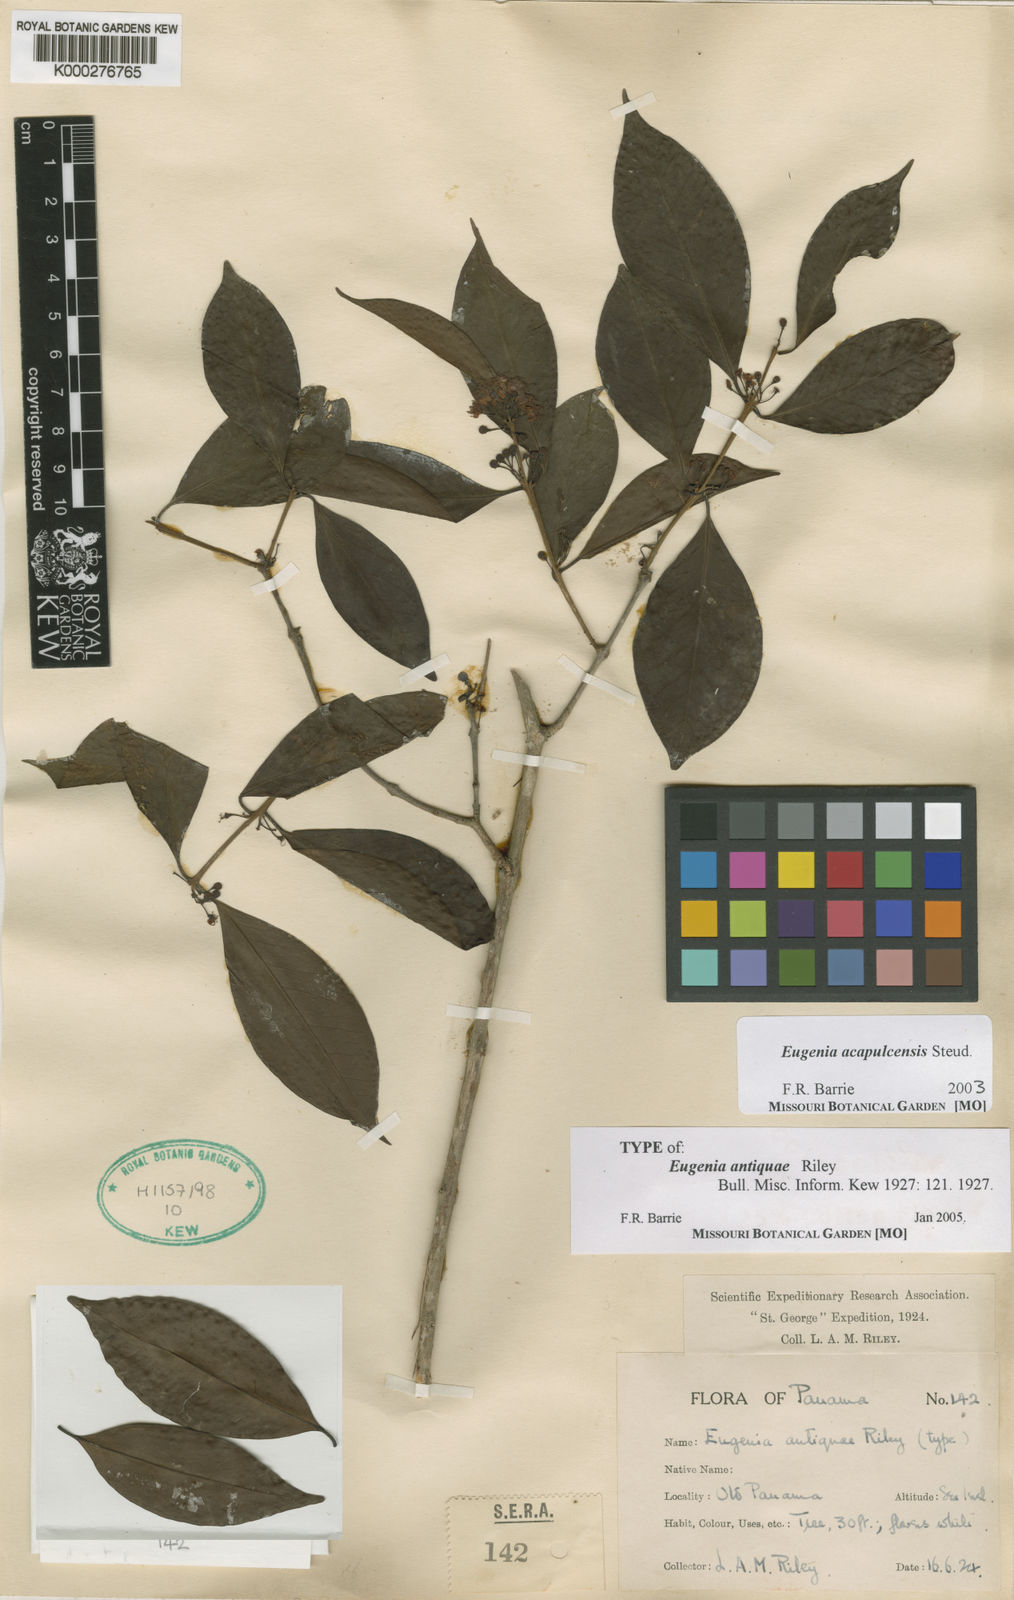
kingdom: Plantae
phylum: Tracheophyta
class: Magnoliopsida
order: Myrtales
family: Myrtaceae
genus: Eugenia
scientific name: Eugenia acapulcensis
